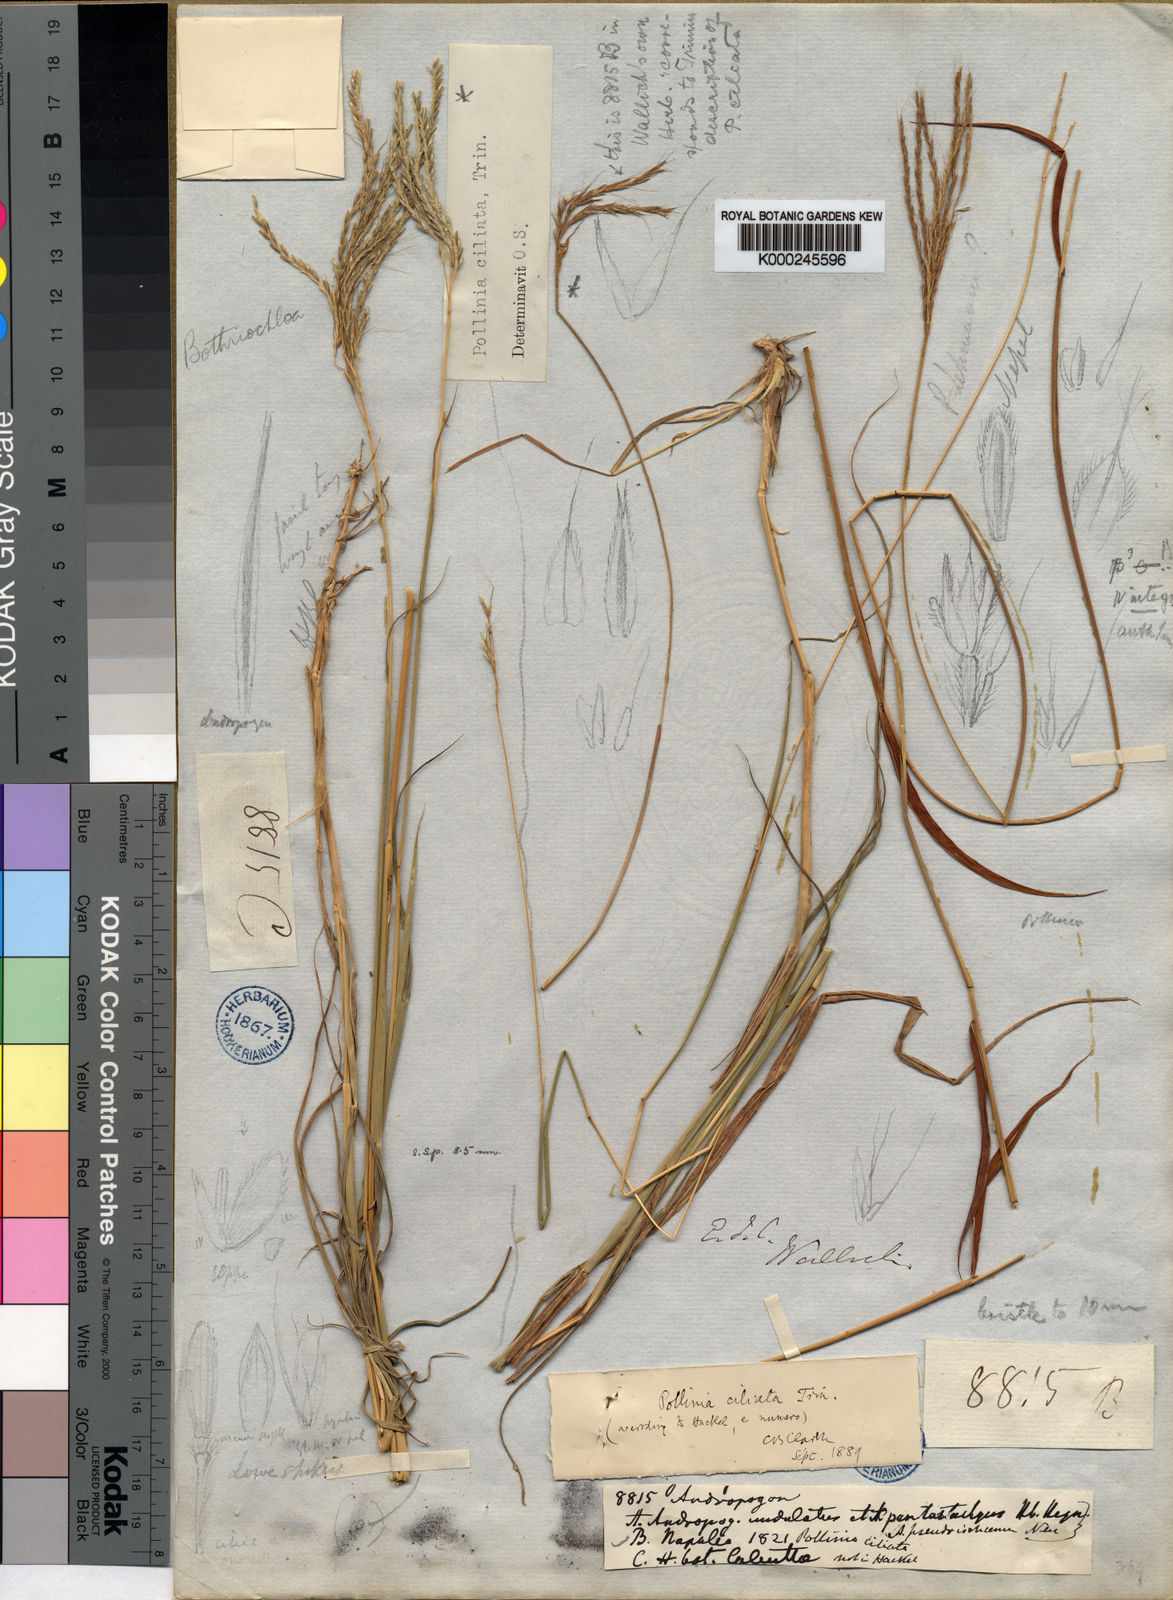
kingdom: Plantae
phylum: Tracheophyta
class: Liliopsida
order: Poales
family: Poaceae
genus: Microstegium
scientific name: Microstegium fasciculatum
